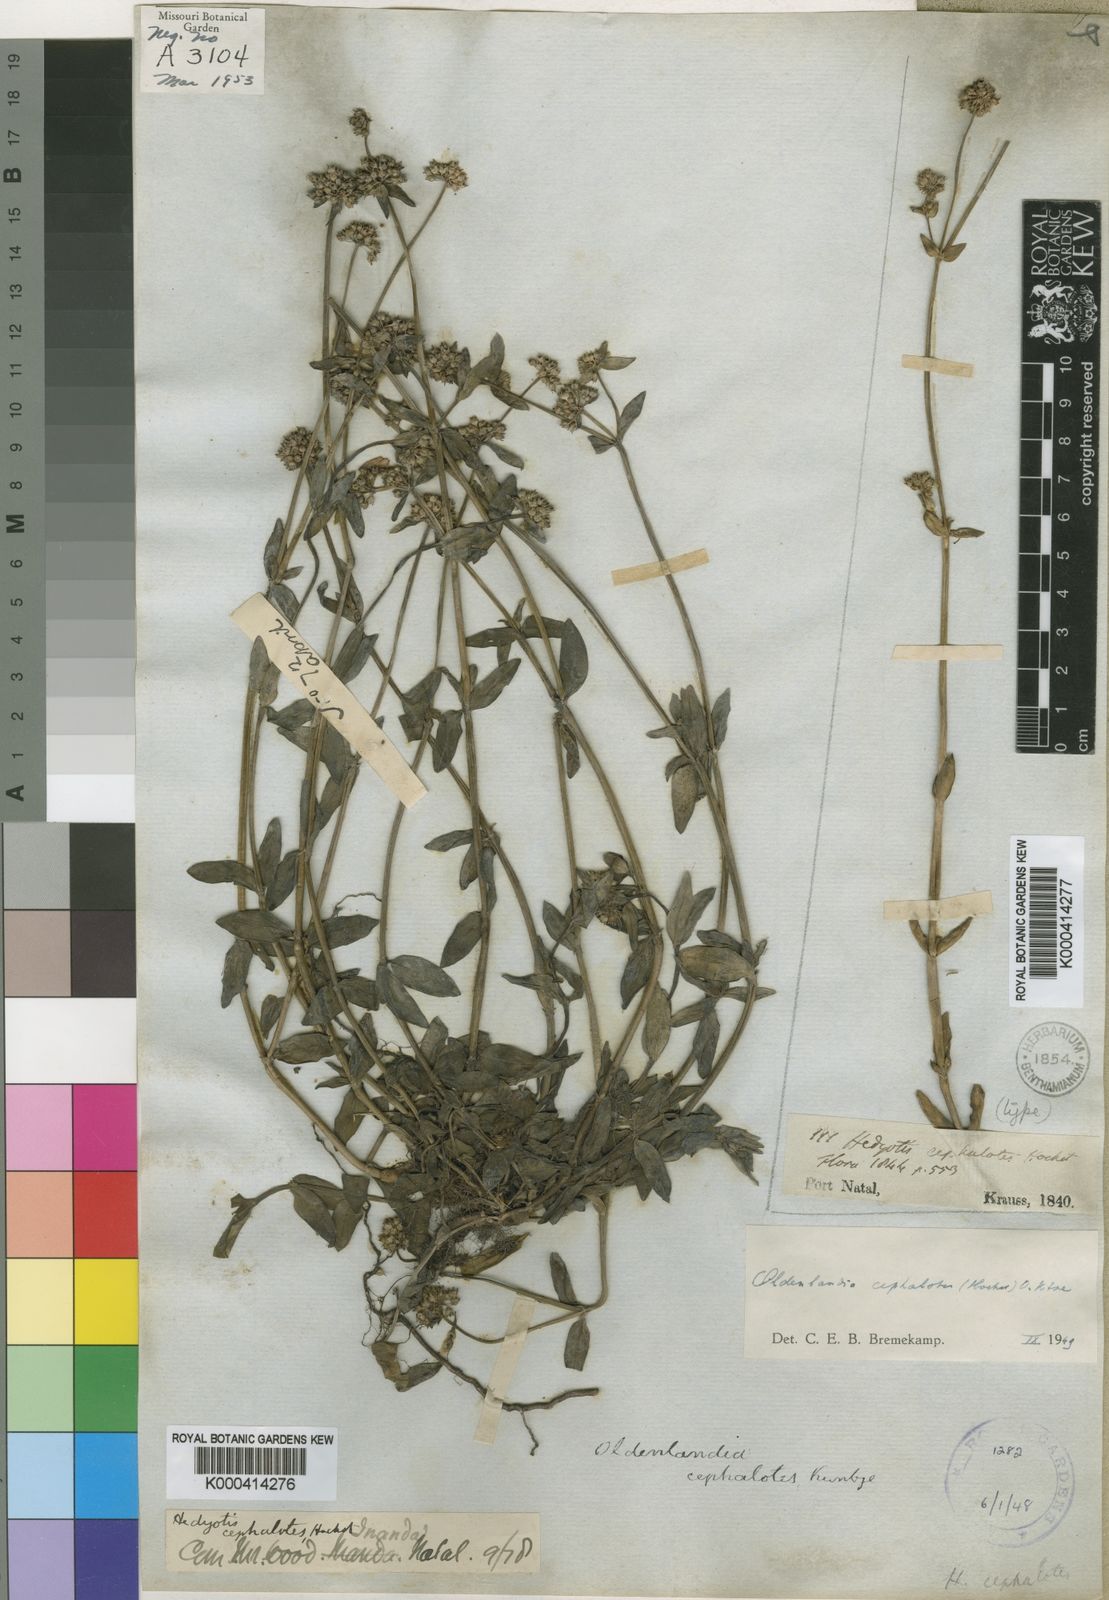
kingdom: Plantae
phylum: Tracheophyta
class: Magnoliopsida
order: Gentianales
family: Rubiaceae
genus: Edrastima
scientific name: Edrastima cephalotes
